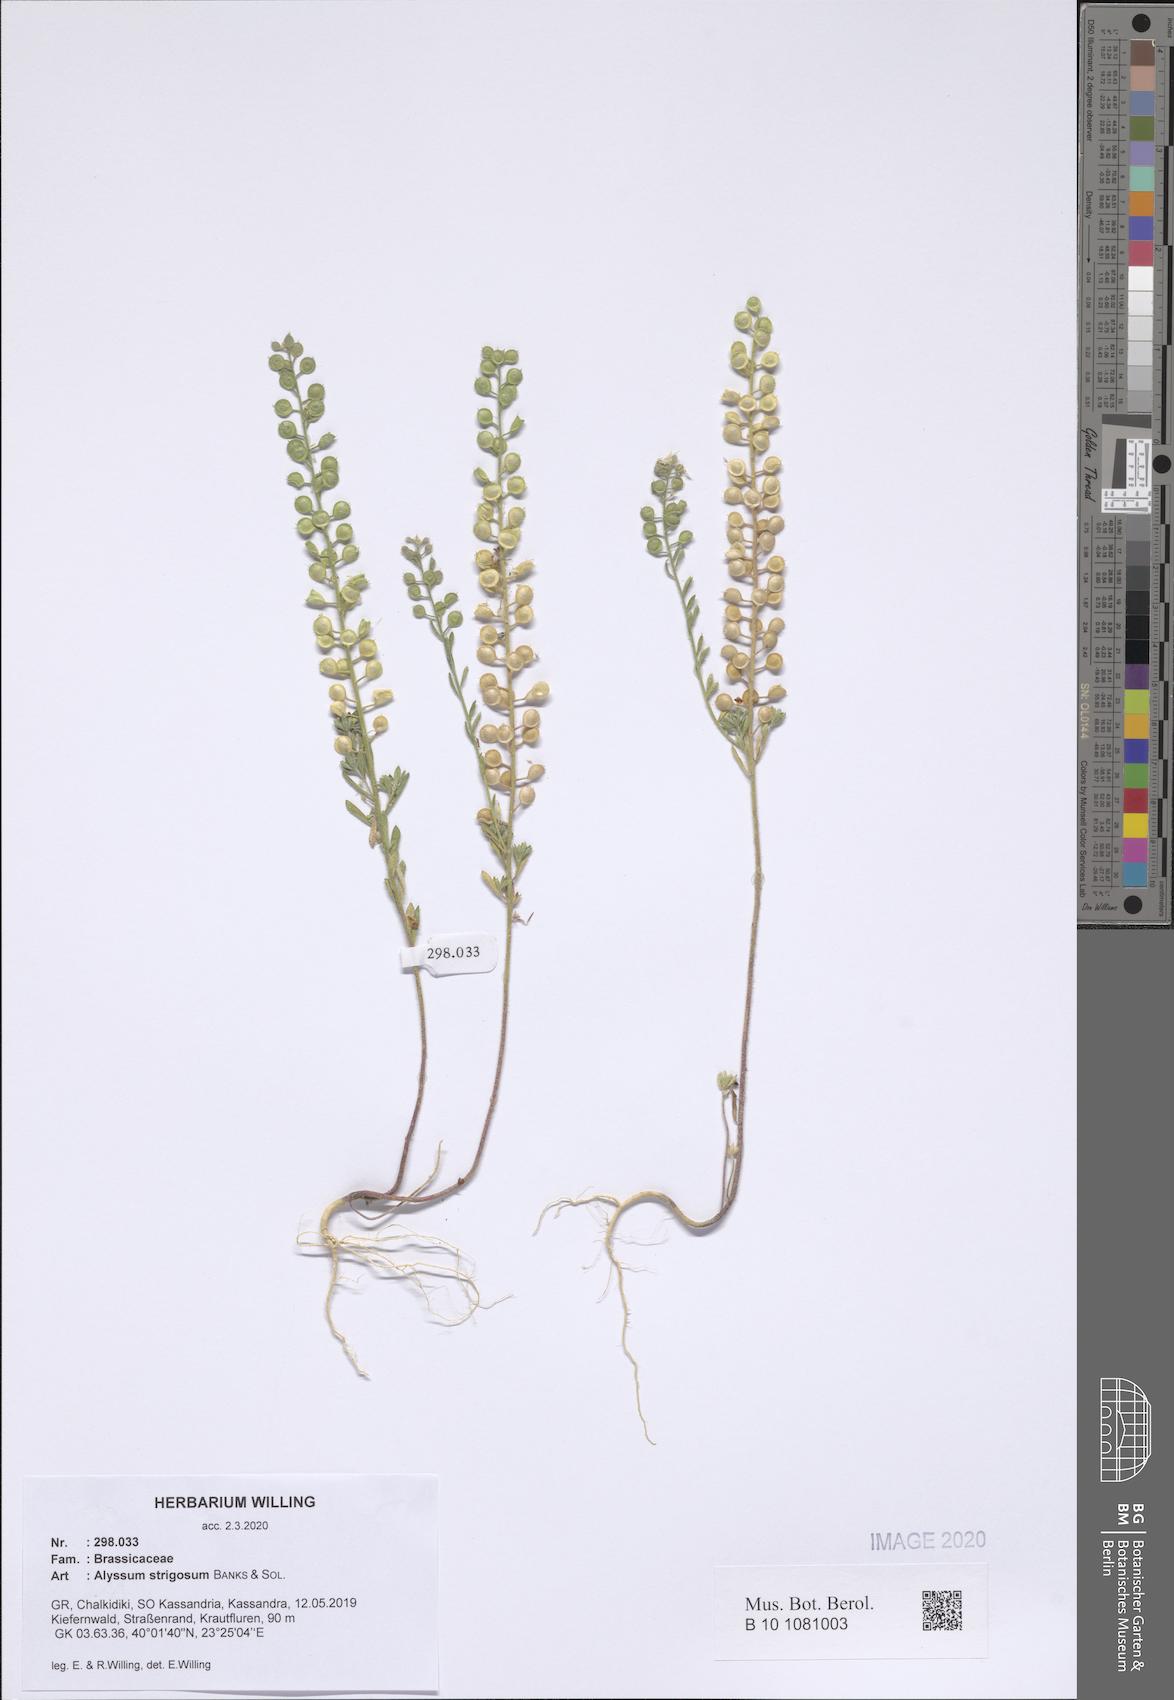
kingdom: Plantae
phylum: Tracheophyta
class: Magnoliopsida
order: Brassicales
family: Brassicaceae
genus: Alyssum
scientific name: Alyssum strigosum
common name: Alyssum
